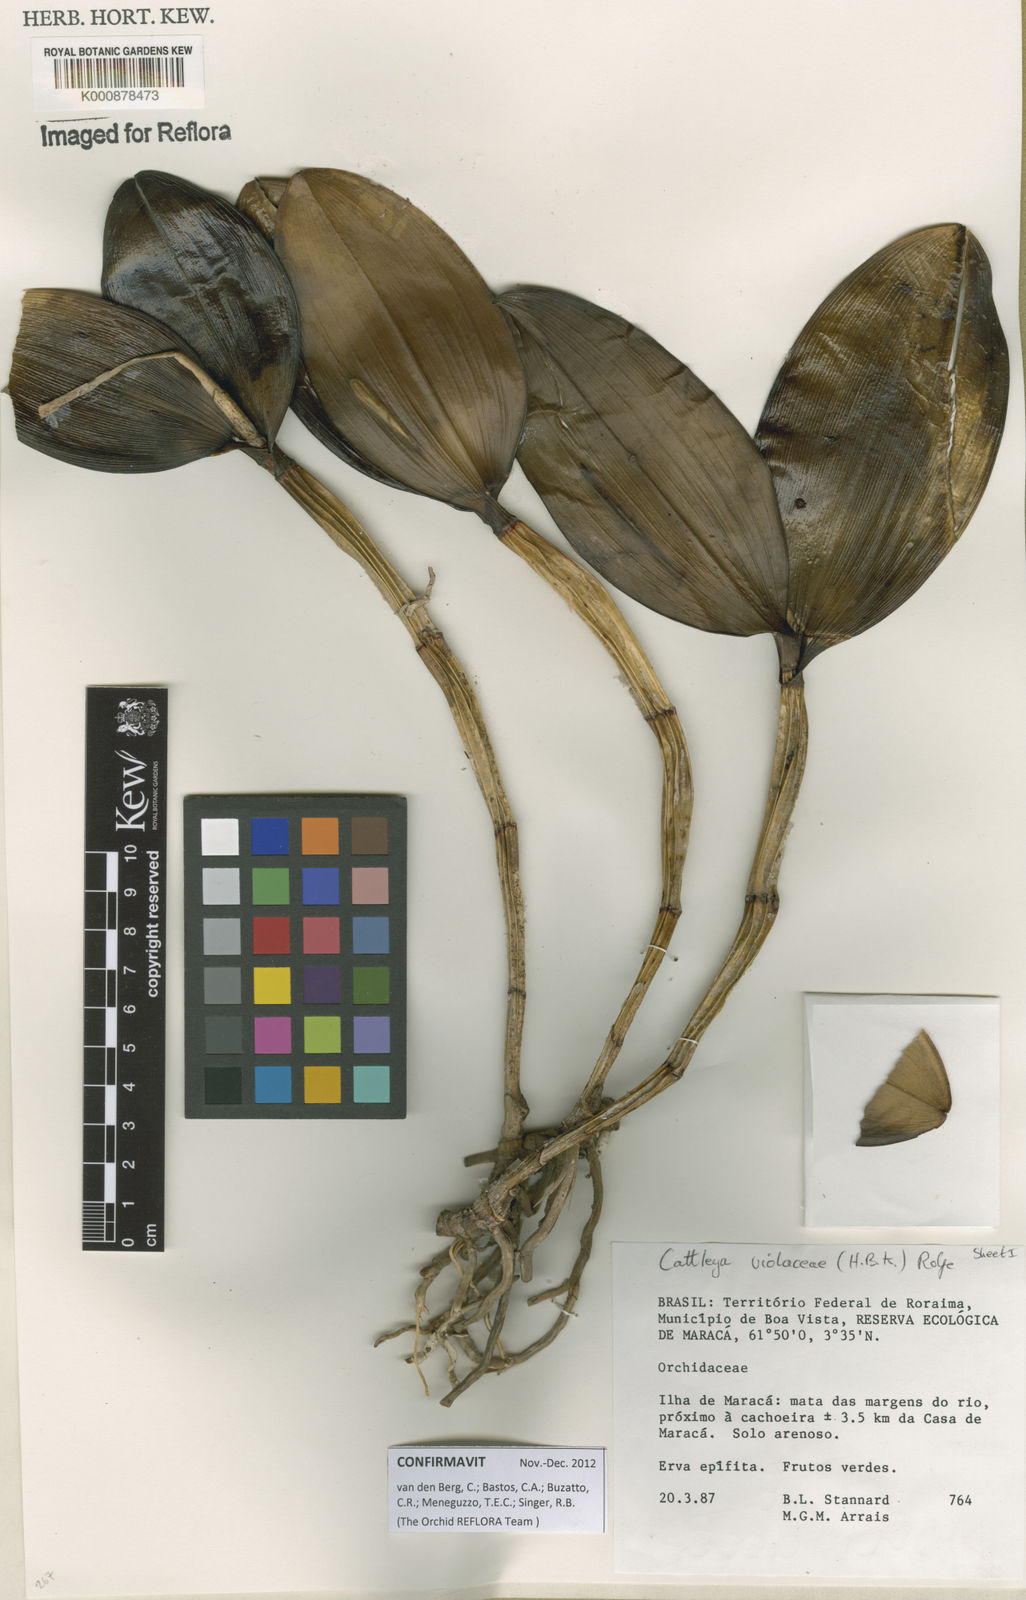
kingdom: Plantae
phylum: Tracheophyta
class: Liliopsida
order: Asparagales
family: Orchidaceae
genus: Cattleya
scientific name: Cattleya
